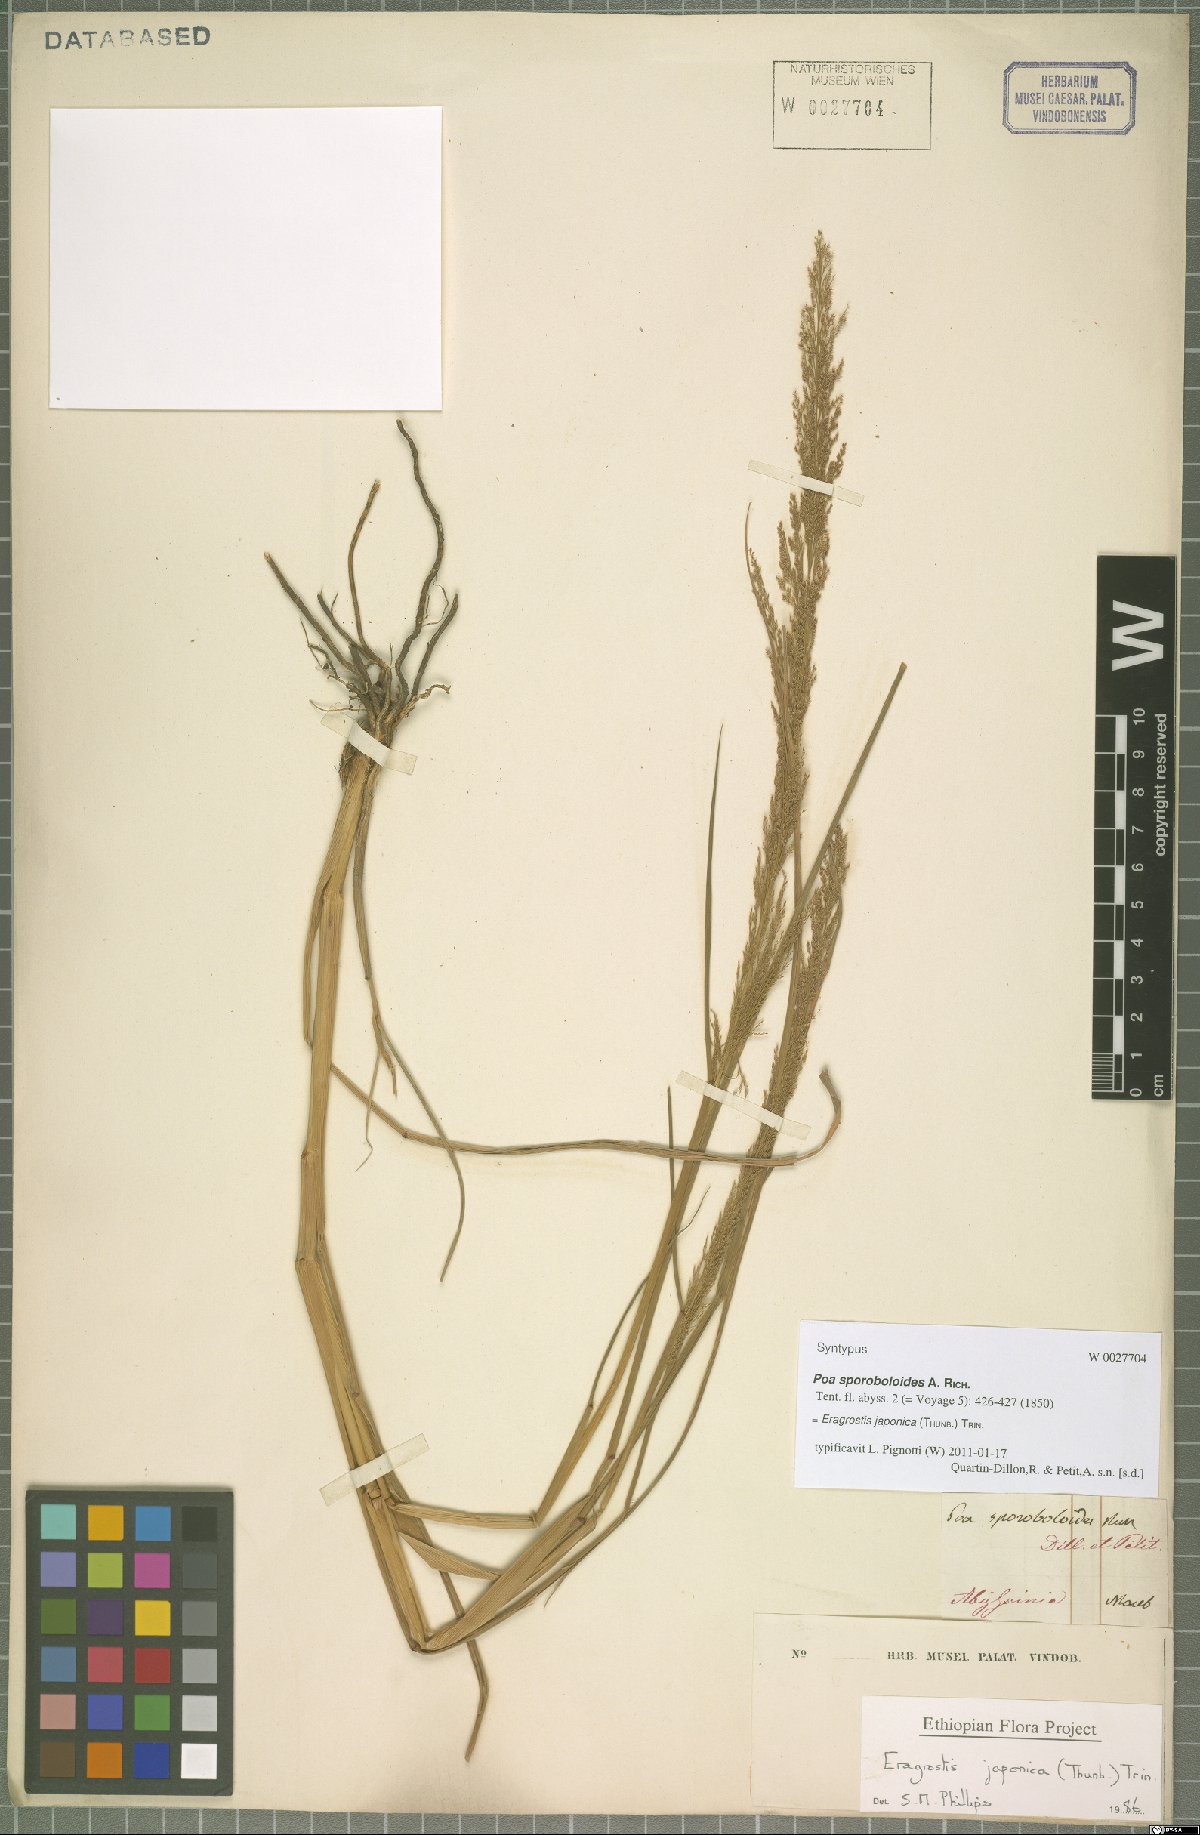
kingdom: Plantae
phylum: Tracheophyta
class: Liliopsida
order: Poales
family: Poaceae
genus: Eragrostis
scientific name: Eragrostis japonica
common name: Pond lovegrass
